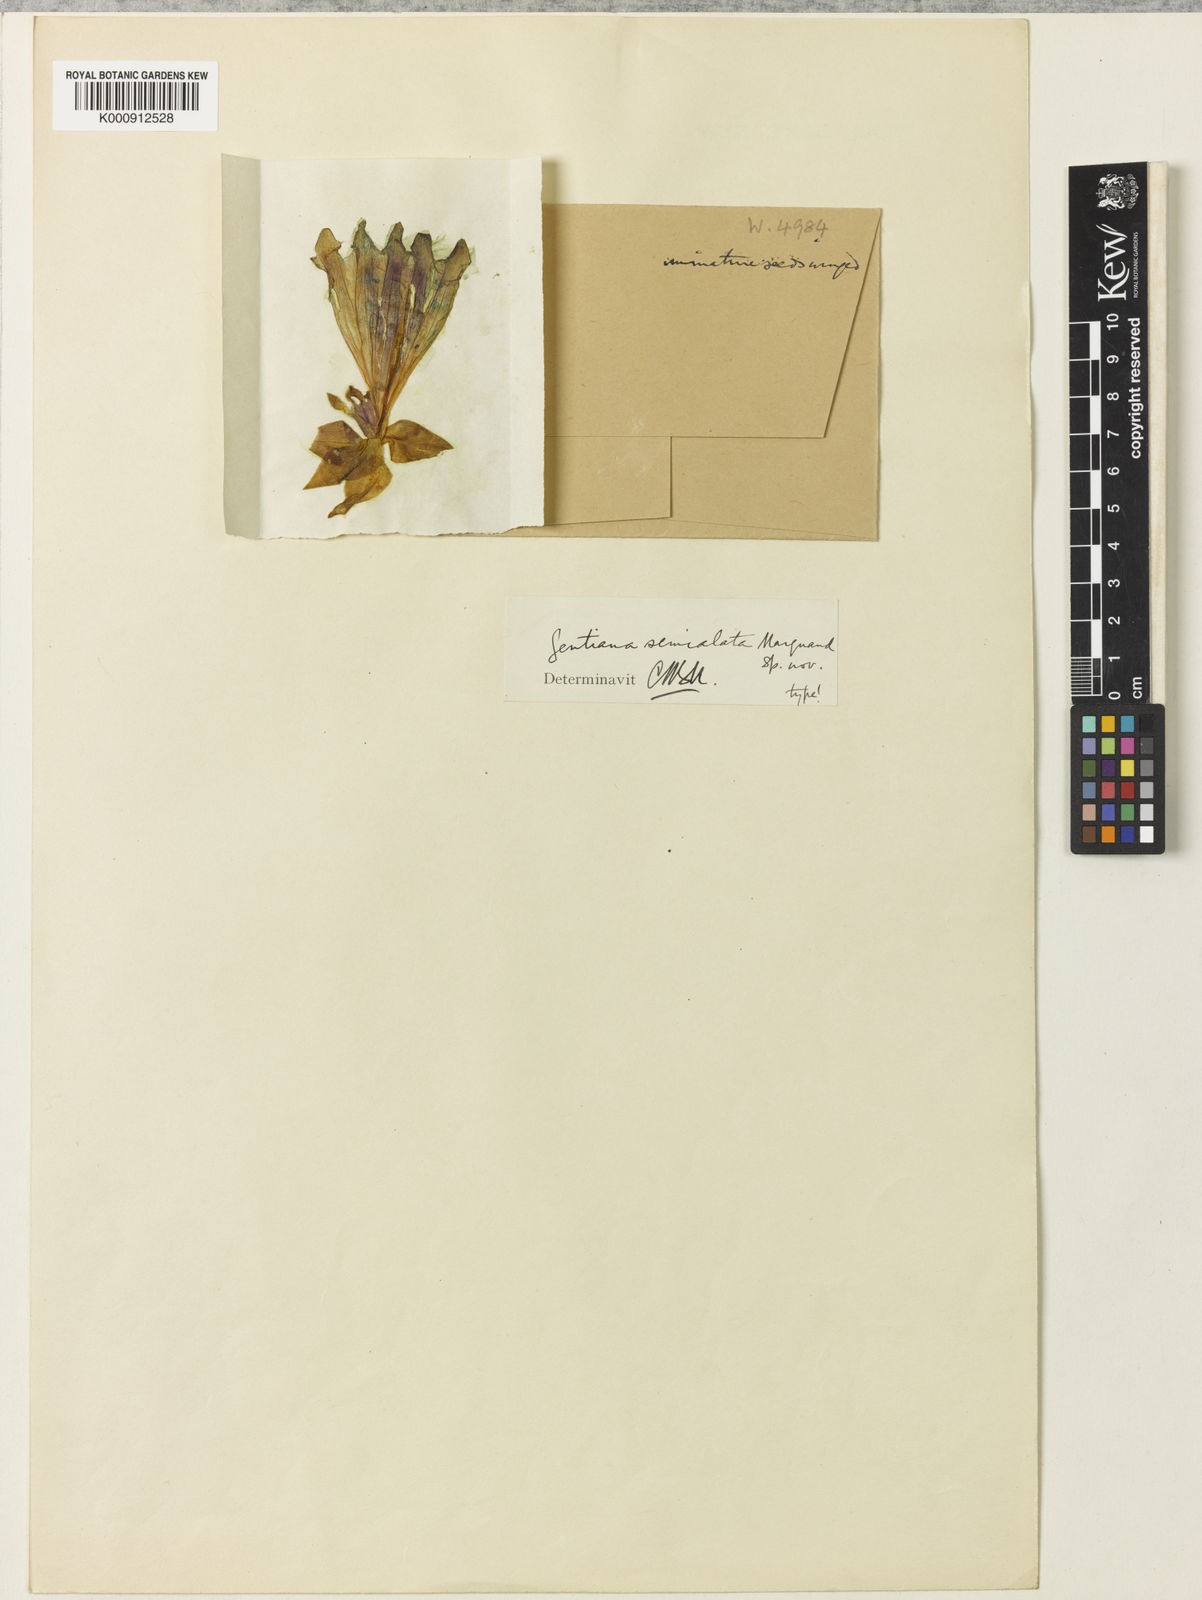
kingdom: Plantae
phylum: Tracheophyta
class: Magnoliopsida
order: Gentianales
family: Gentianaceae
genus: Crawfurdia
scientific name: Crawfurdia semialata
